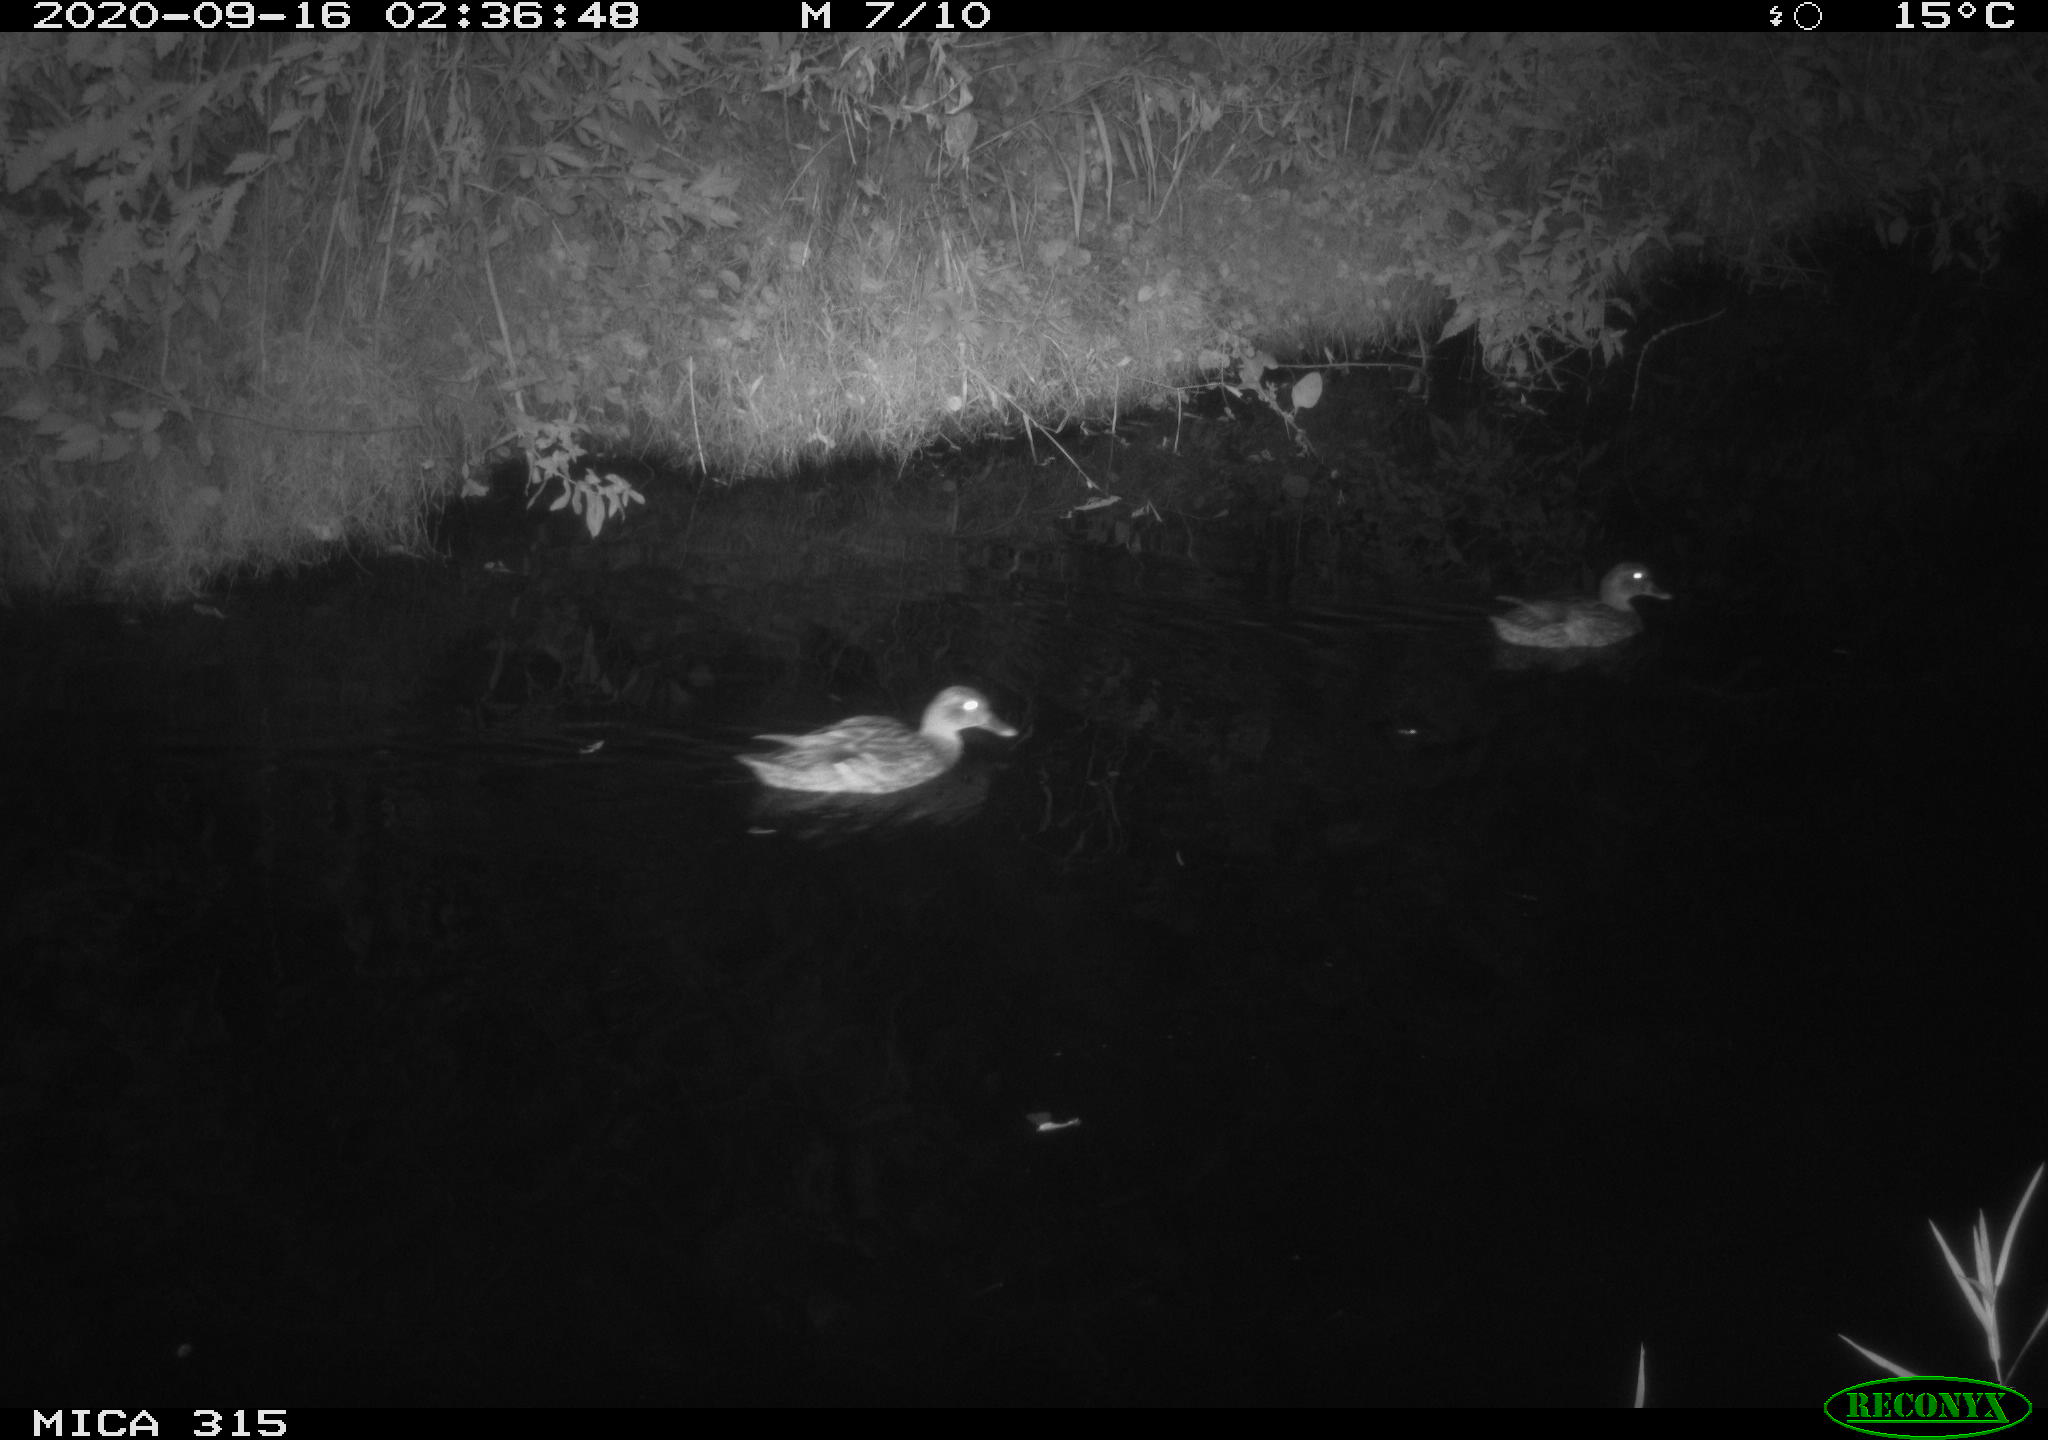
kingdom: Animalia
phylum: Chordata
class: Aves
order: Anseriformes
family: Anatidae
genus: Anas
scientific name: Anas platyrhynchos
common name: Mallard
